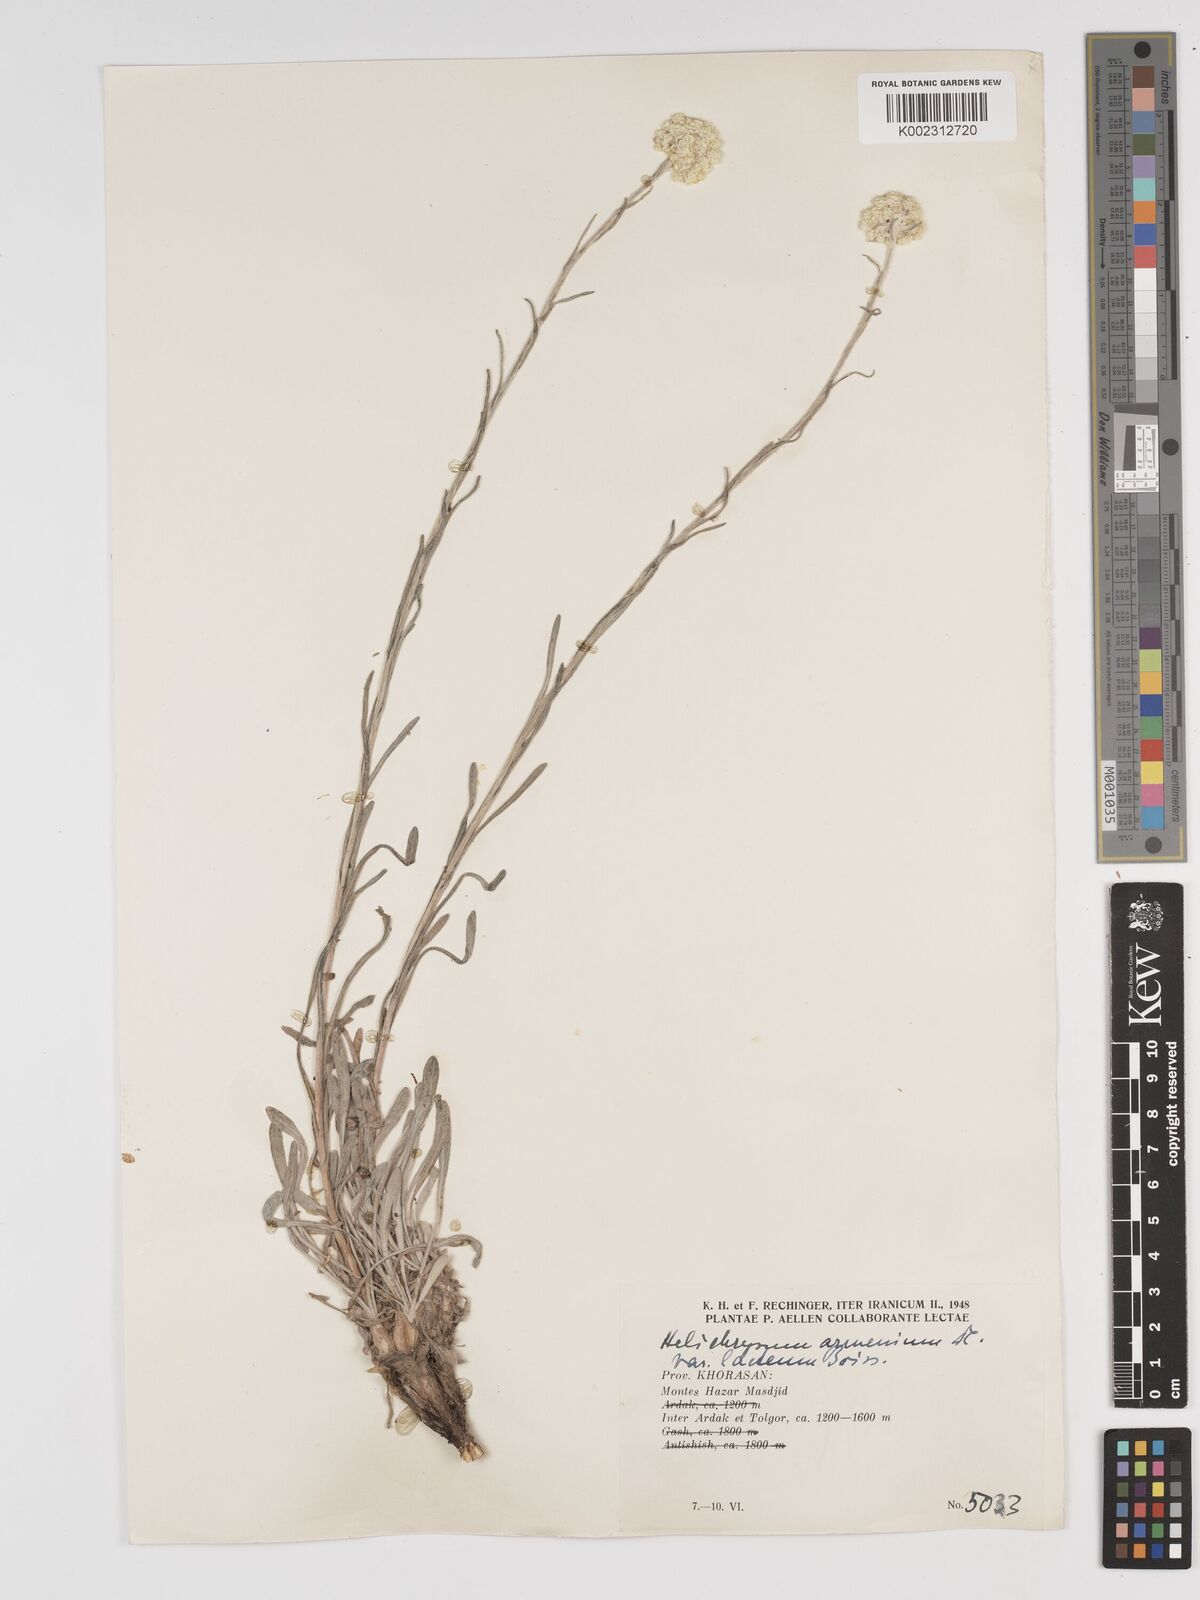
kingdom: Plantae
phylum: Tracheophyta
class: Magnoliopsida
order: Asterales
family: Asteraceae
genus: Helichrysum
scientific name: Helichrysum armenium
